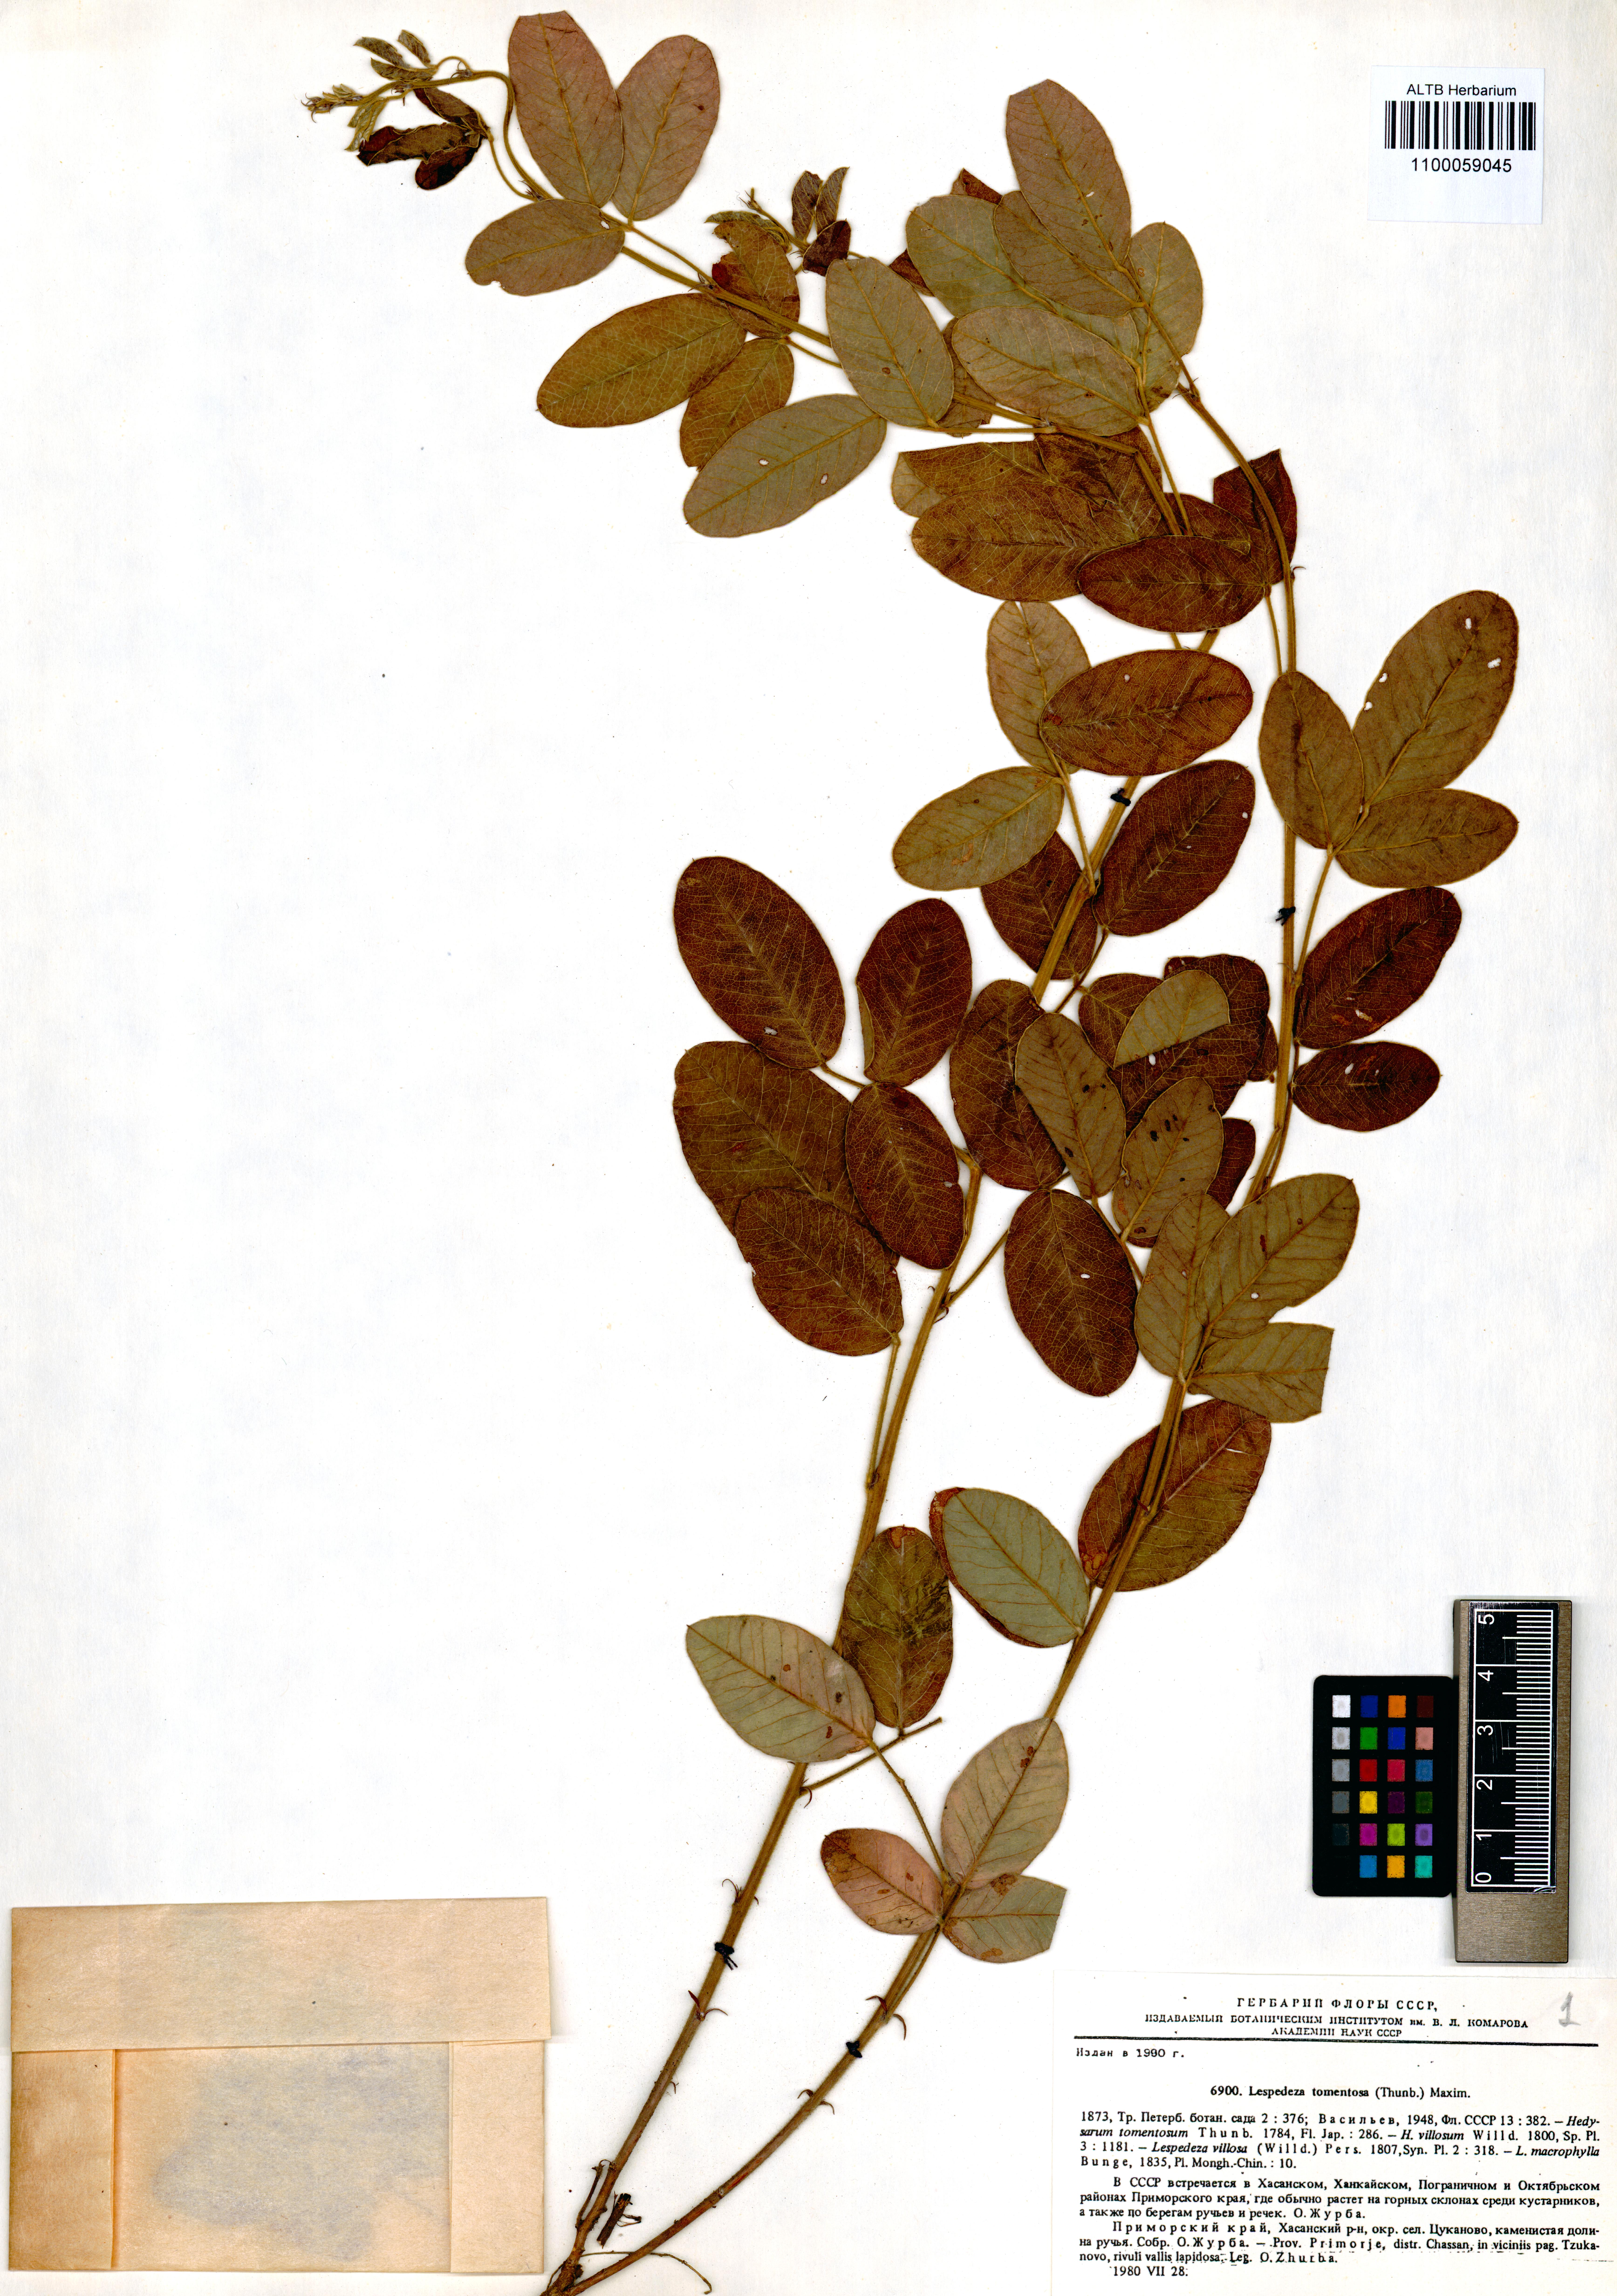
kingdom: Plantae
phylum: Tracheophyta
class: Magnoliopsida
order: Fabales
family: Fabaceae
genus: Lespedeza
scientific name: Lespedeza tomentosa
